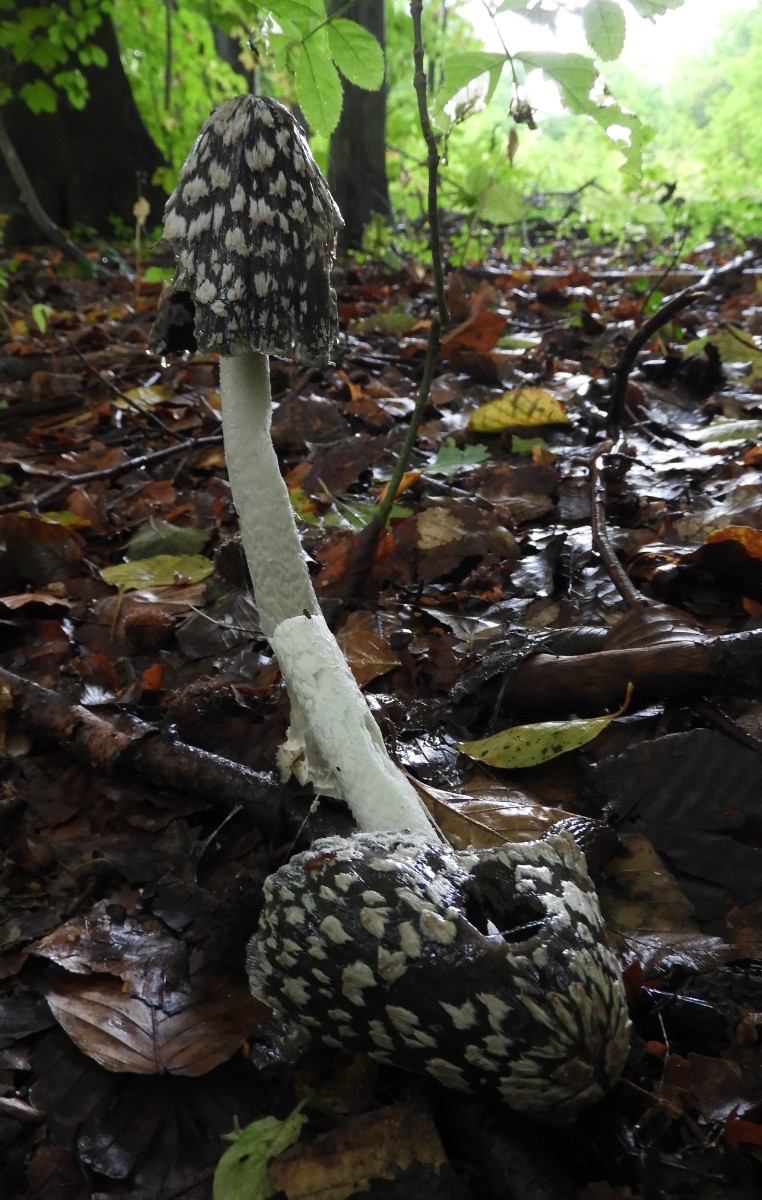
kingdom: Fungi
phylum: Basidiomycota
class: Agaricomycetes
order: Agaricales
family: Psathyrellaceae
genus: Coprinopsis
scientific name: Coprinopsis picacea
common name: skade-blækhat
